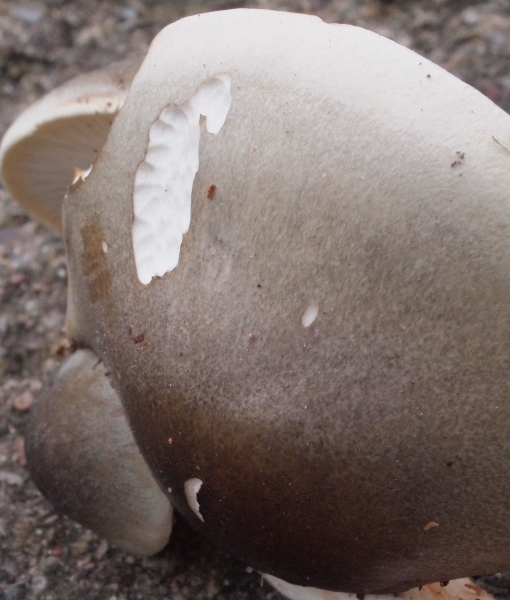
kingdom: Fungi
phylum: Basidiomycota
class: Agaricomycetes
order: Agaricales
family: Tricholomataceae
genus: Tricholoma
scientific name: Tricholoma saponaceum
